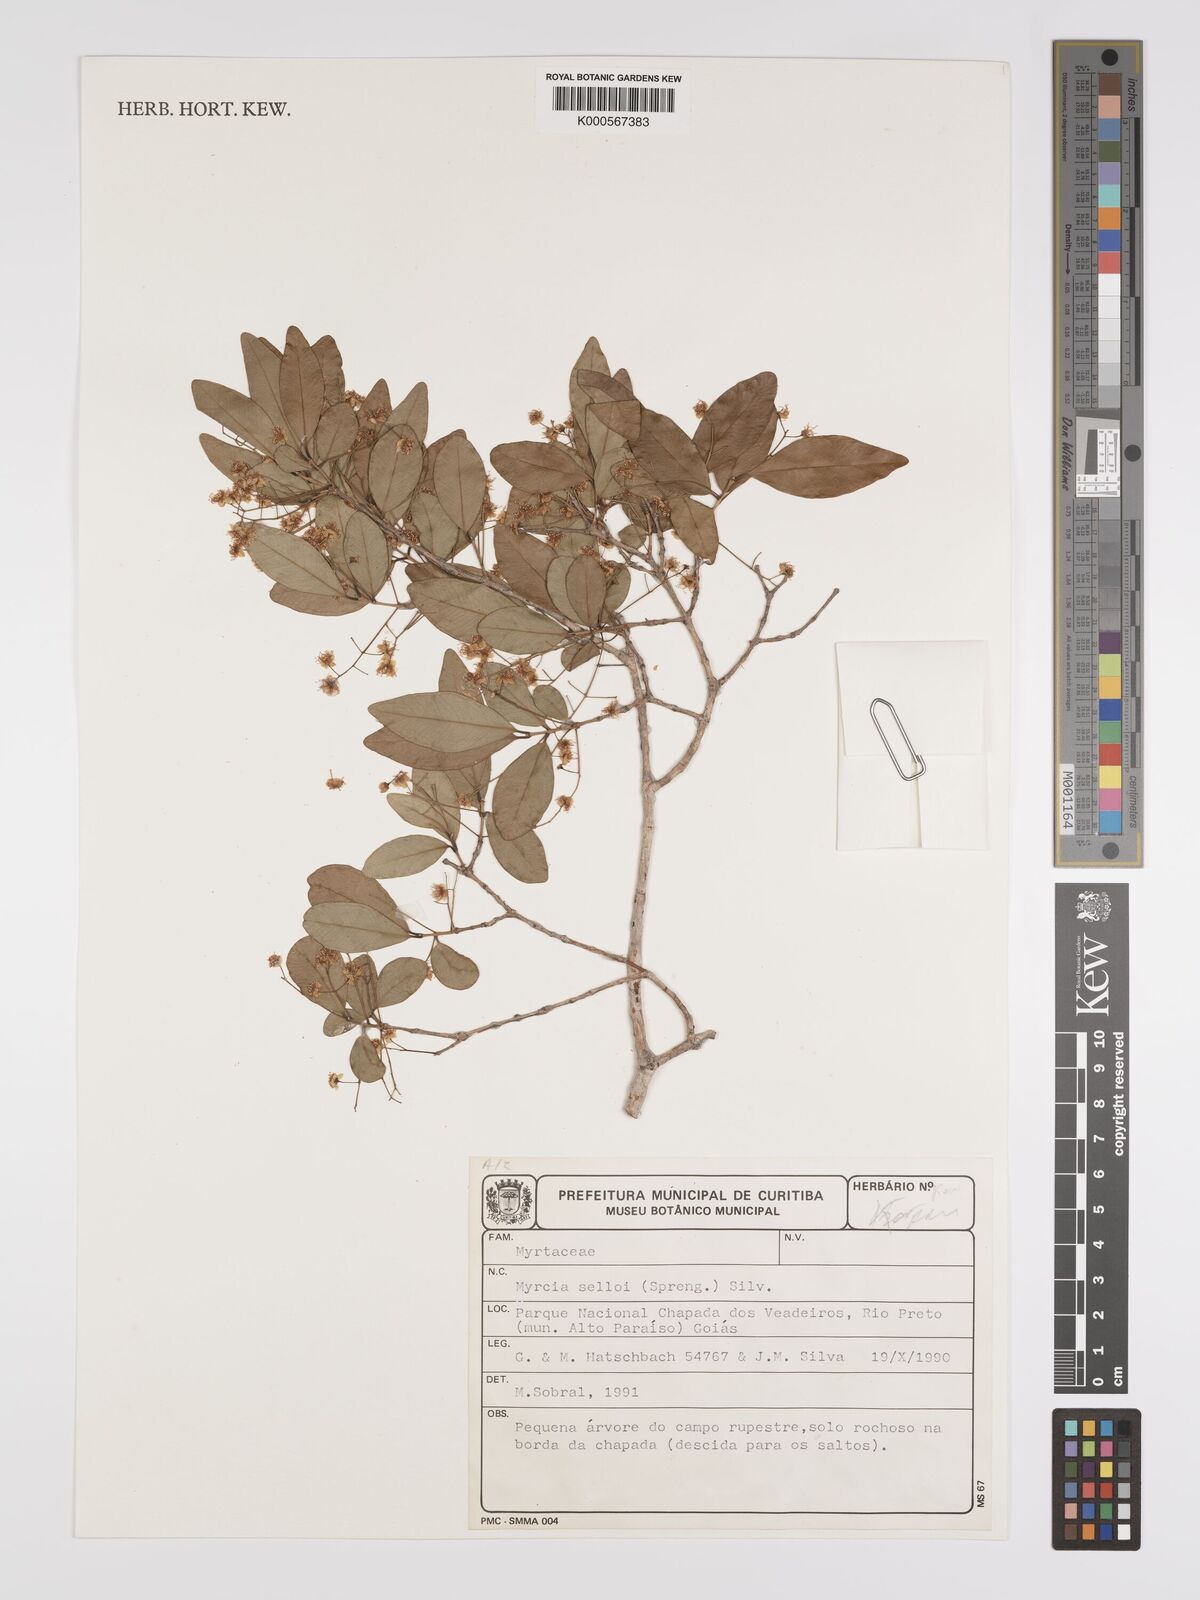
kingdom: Plantae
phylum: Tracheophyta
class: Magnoliopsida
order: Myrtales
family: Myrtaceae
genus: Myrcia
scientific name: Myrcia selloi
